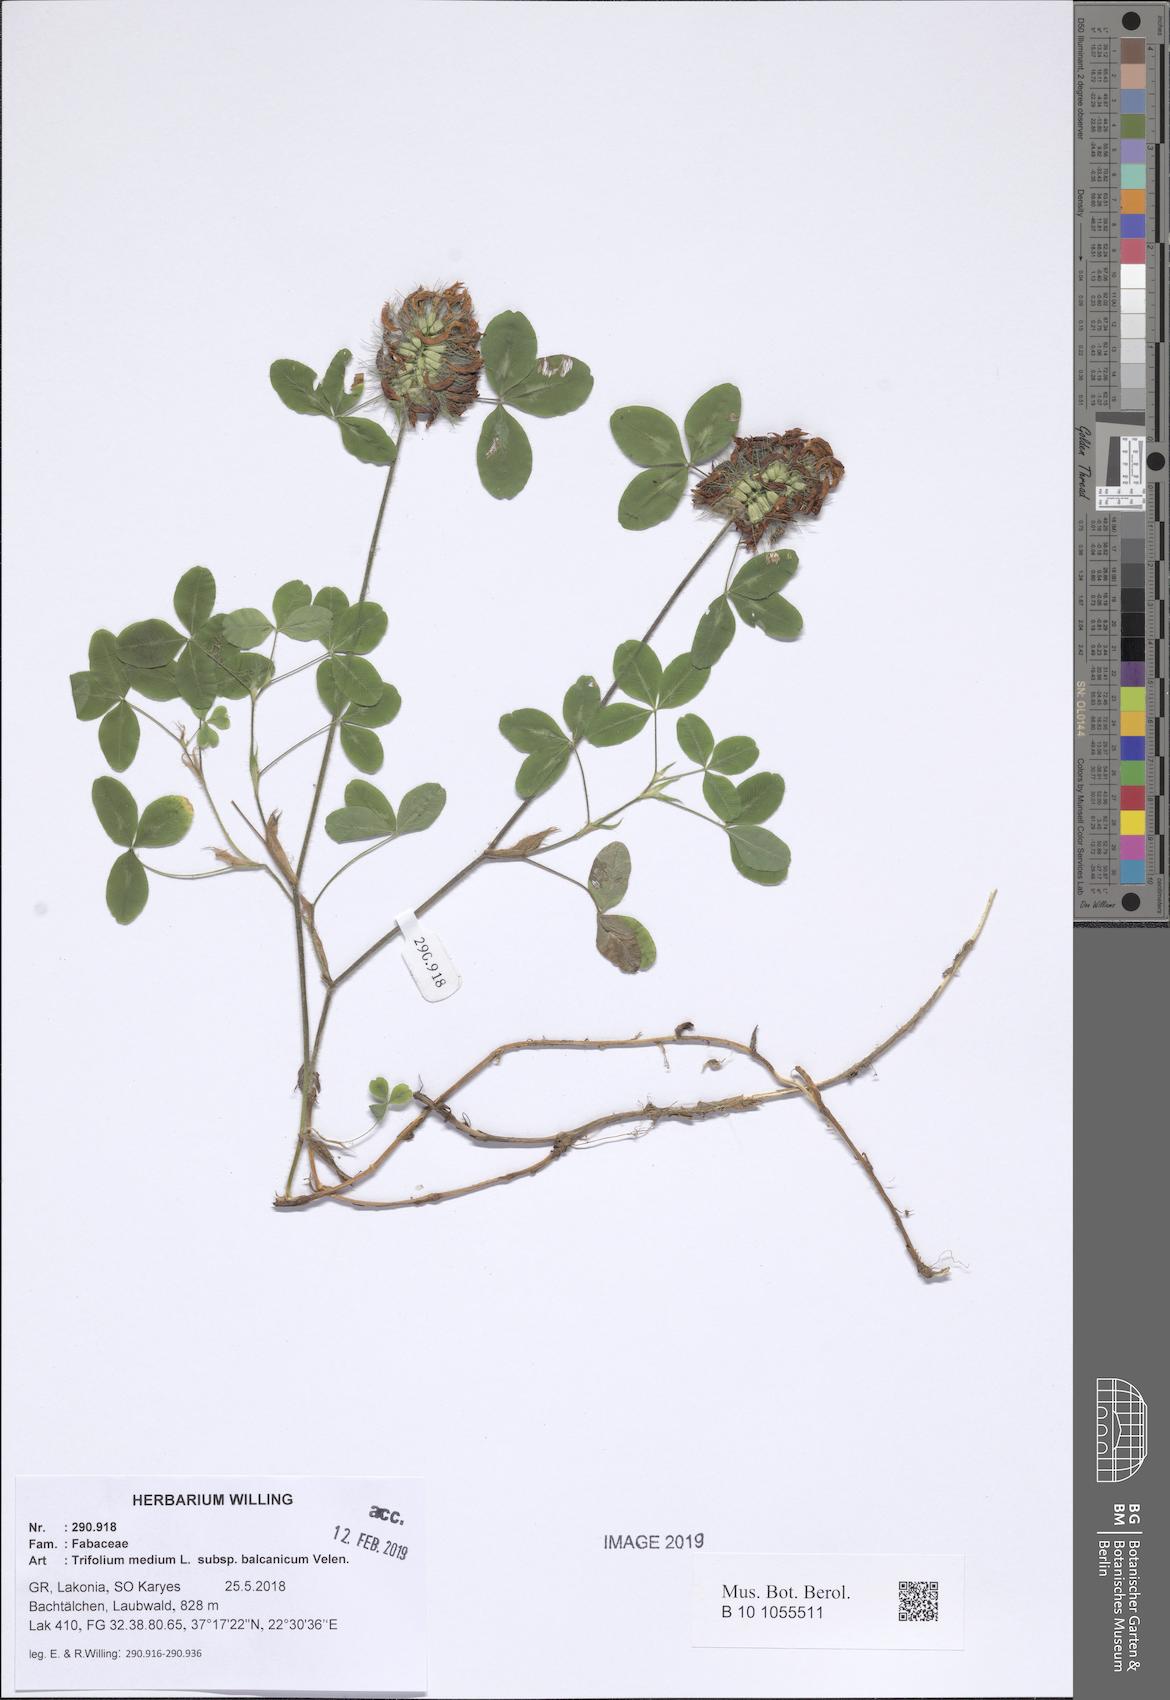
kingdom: Plantae
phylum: Tracheophyta
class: Magnoliopsida
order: Fabales
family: Fabaceae
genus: Trifolium
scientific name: Trifolium pseudomedium
